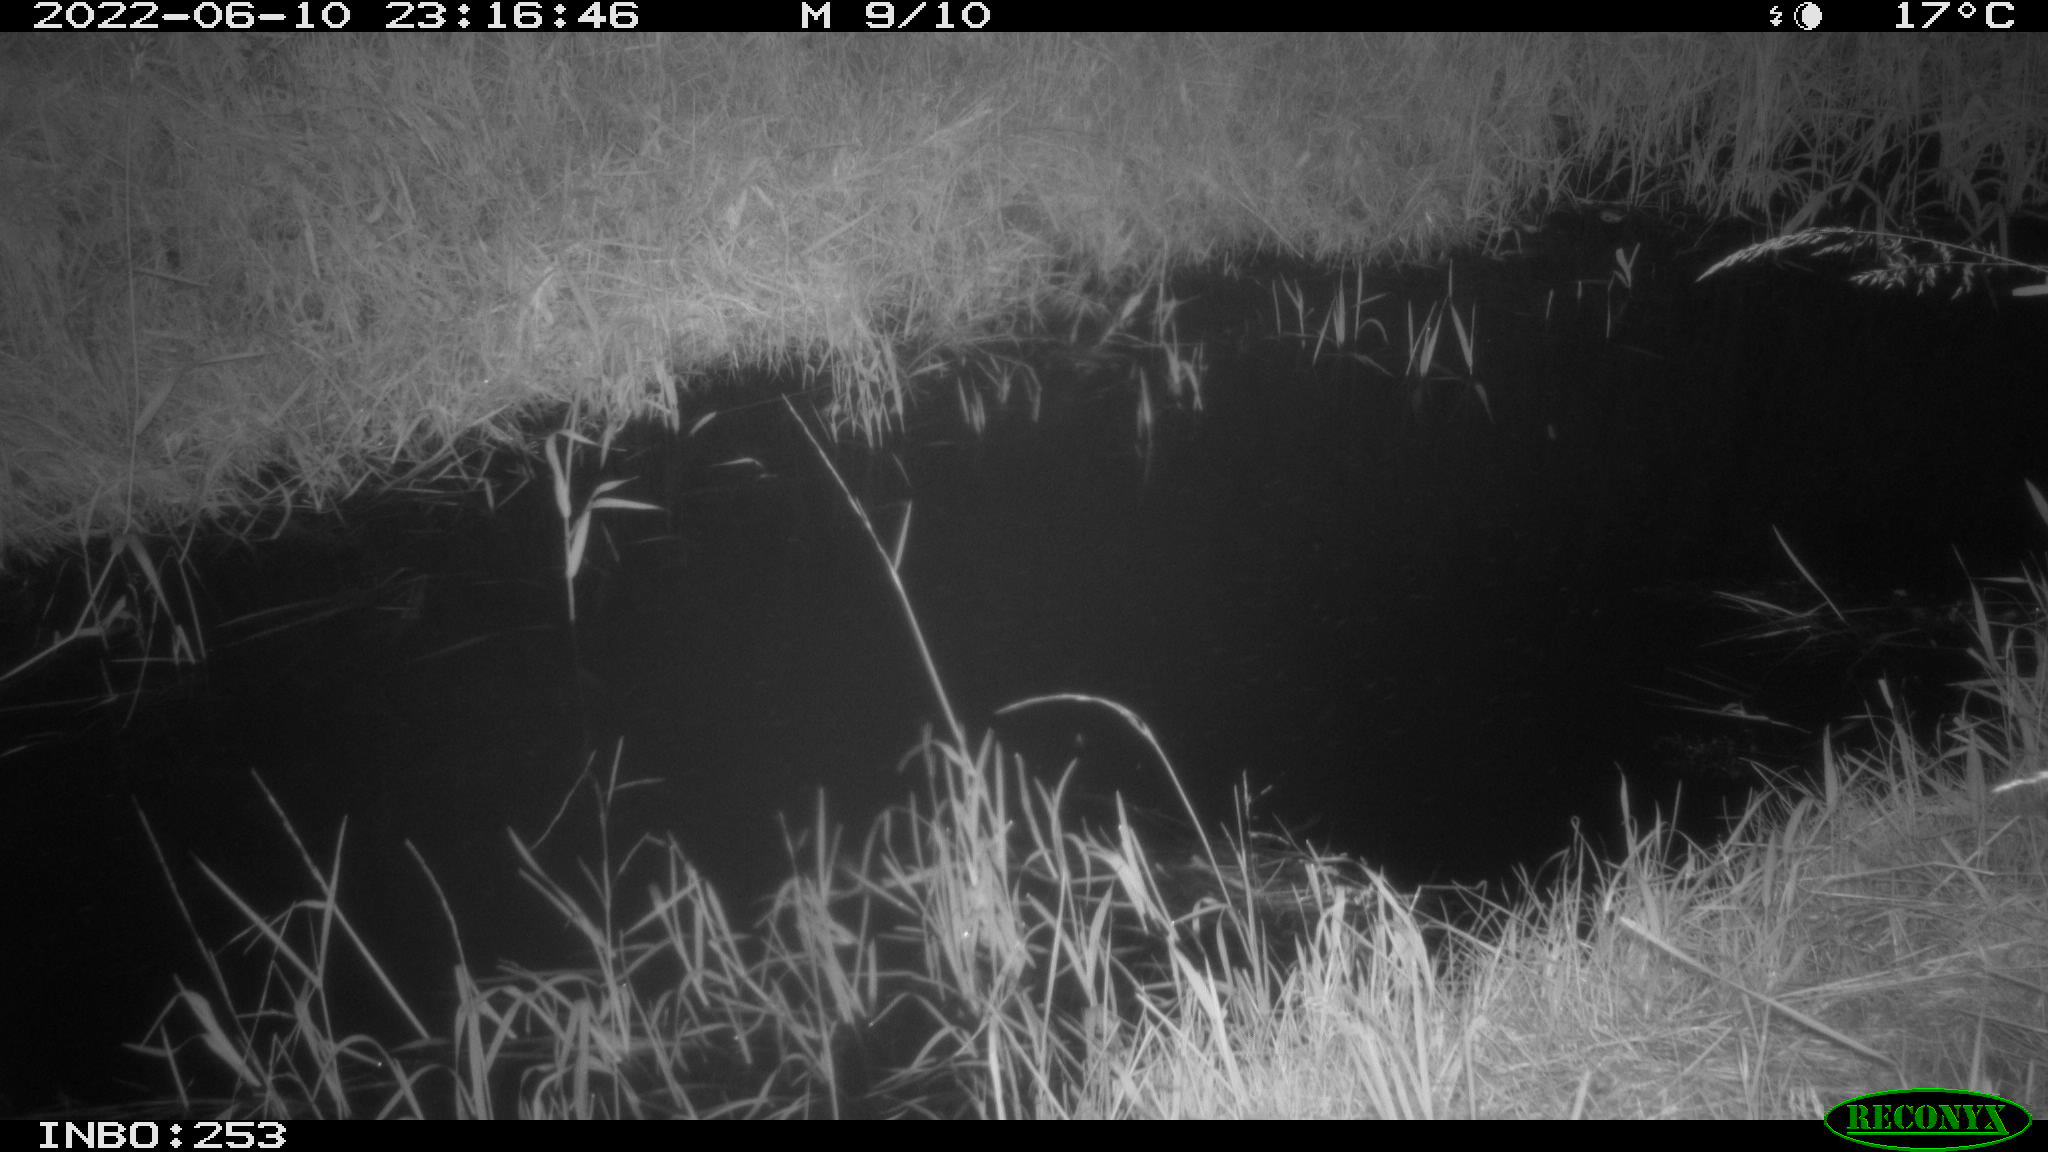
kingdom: Animalia
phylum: Chordata
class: Mammalia
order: Artiodactyla
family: Cervidae
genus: Capreolus
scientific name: Capreolus capreolus
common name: Western roe deer
